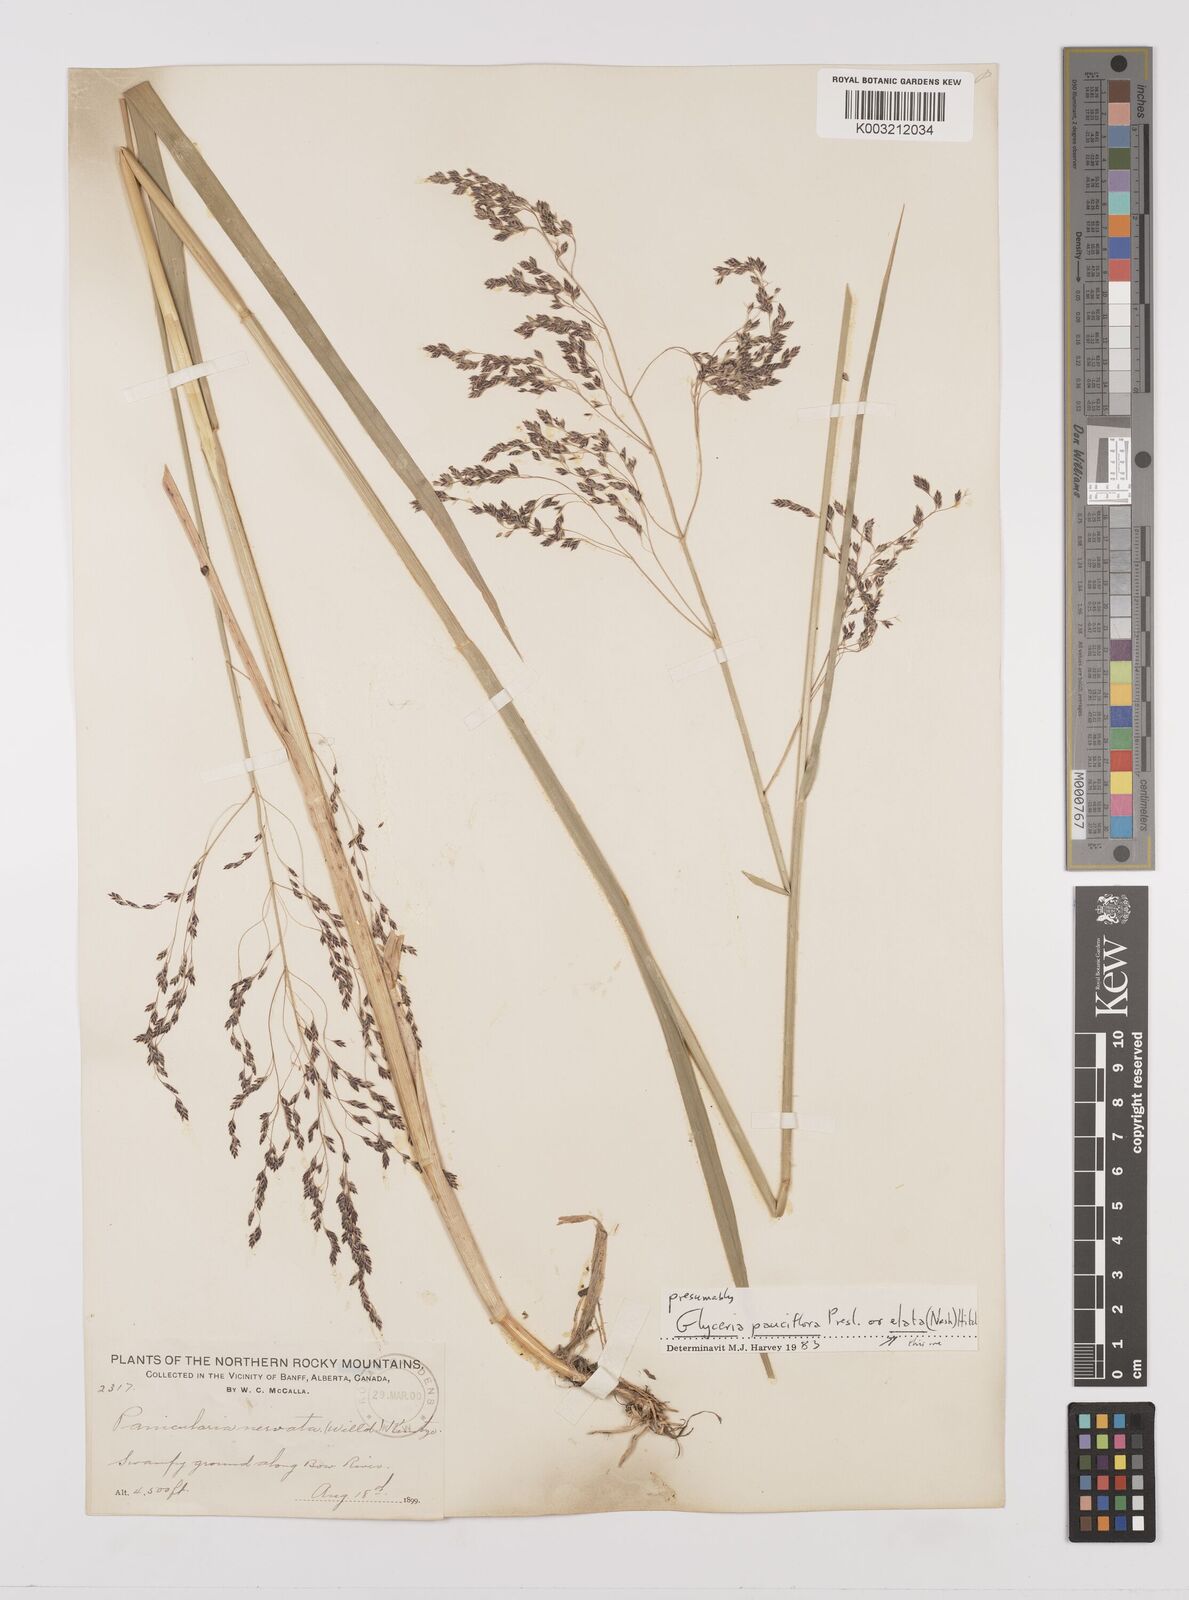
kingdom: Plantae
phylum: Tracheophyta
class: Liliopsida
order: Poales
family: Poaceae
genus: Glyceria
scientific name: Glyceria striata
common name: Fowl manna grass
